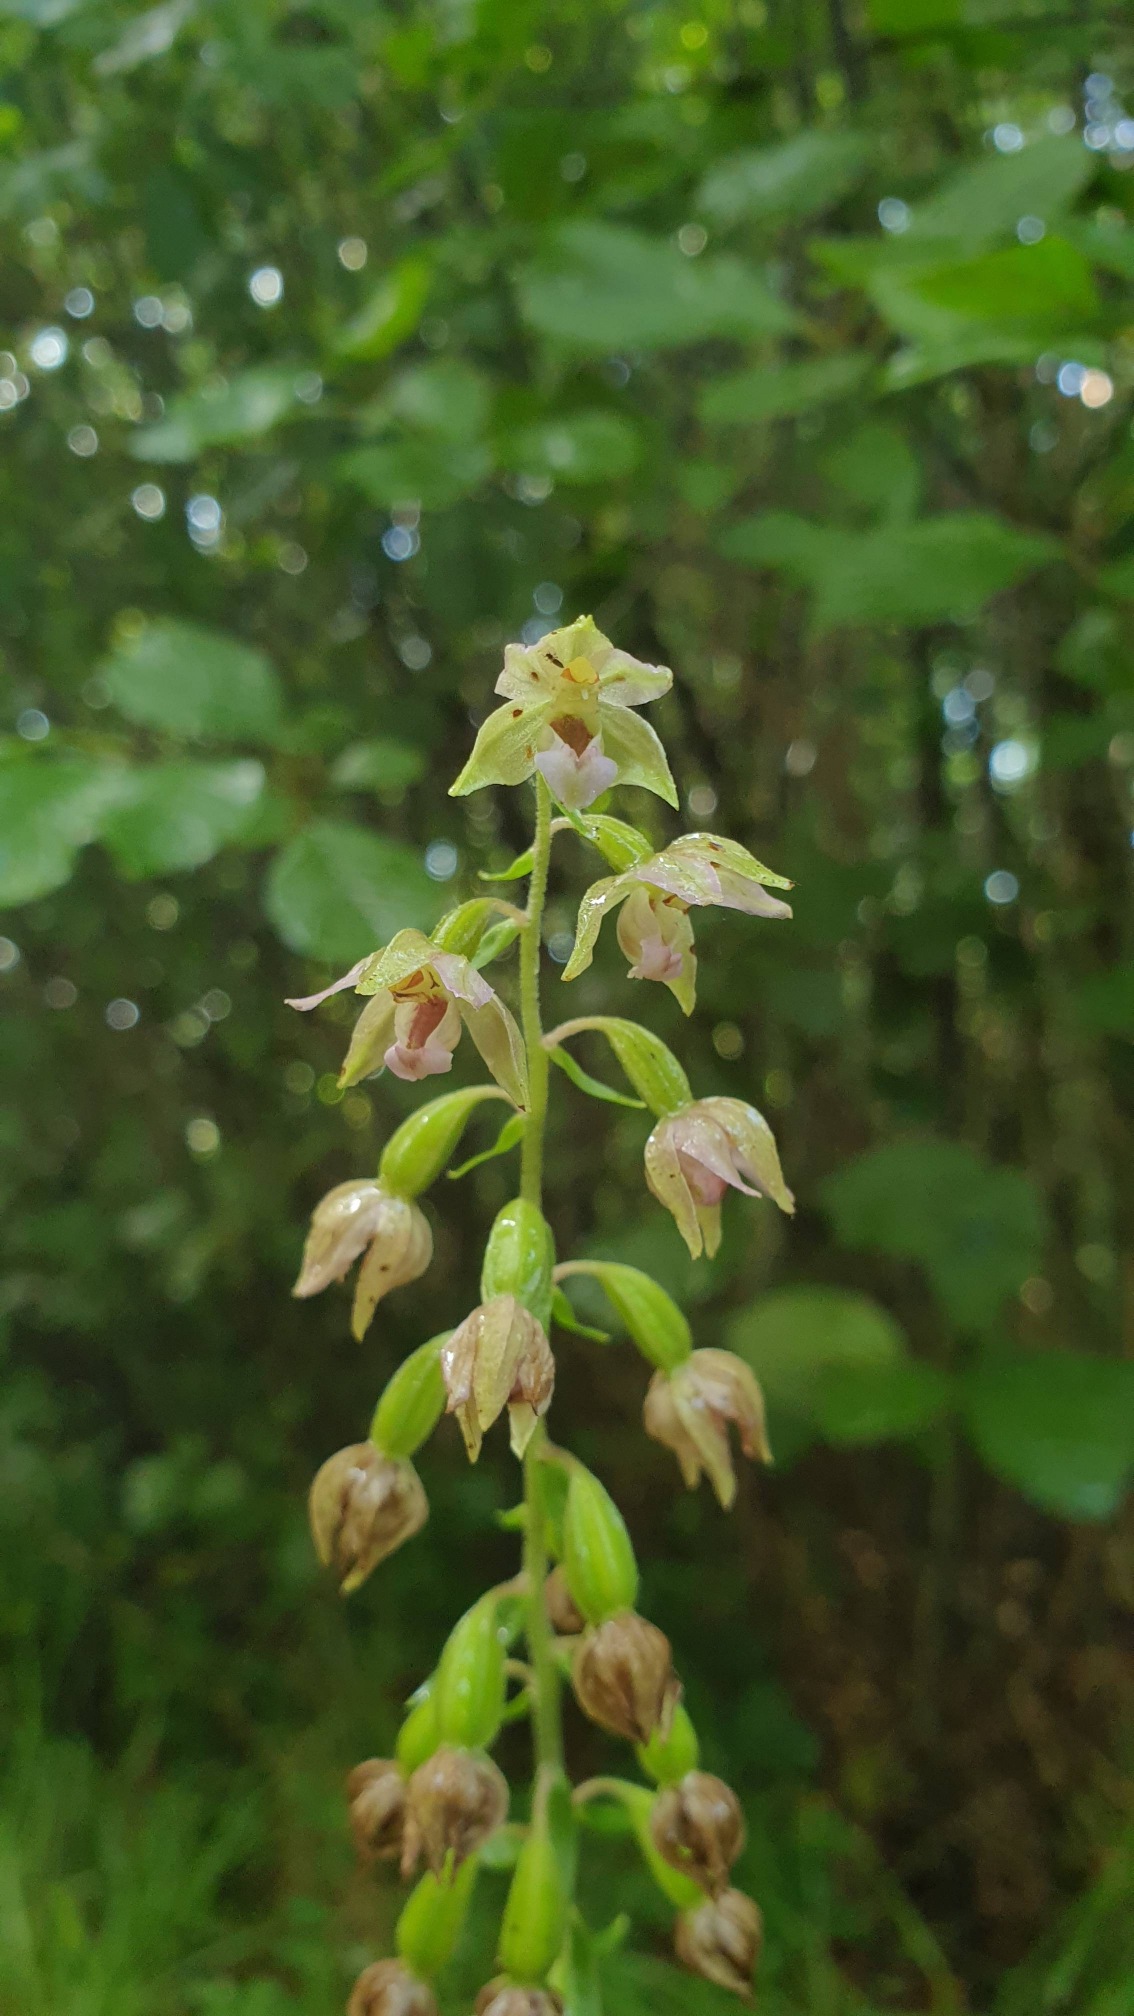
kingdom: Plantae
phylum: Tracheophyta
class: Liliopsida
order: Asparagales
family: Orchidaceae
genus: Epipactis
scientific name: Epipactis helleborine
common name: Skov-hullæbe
